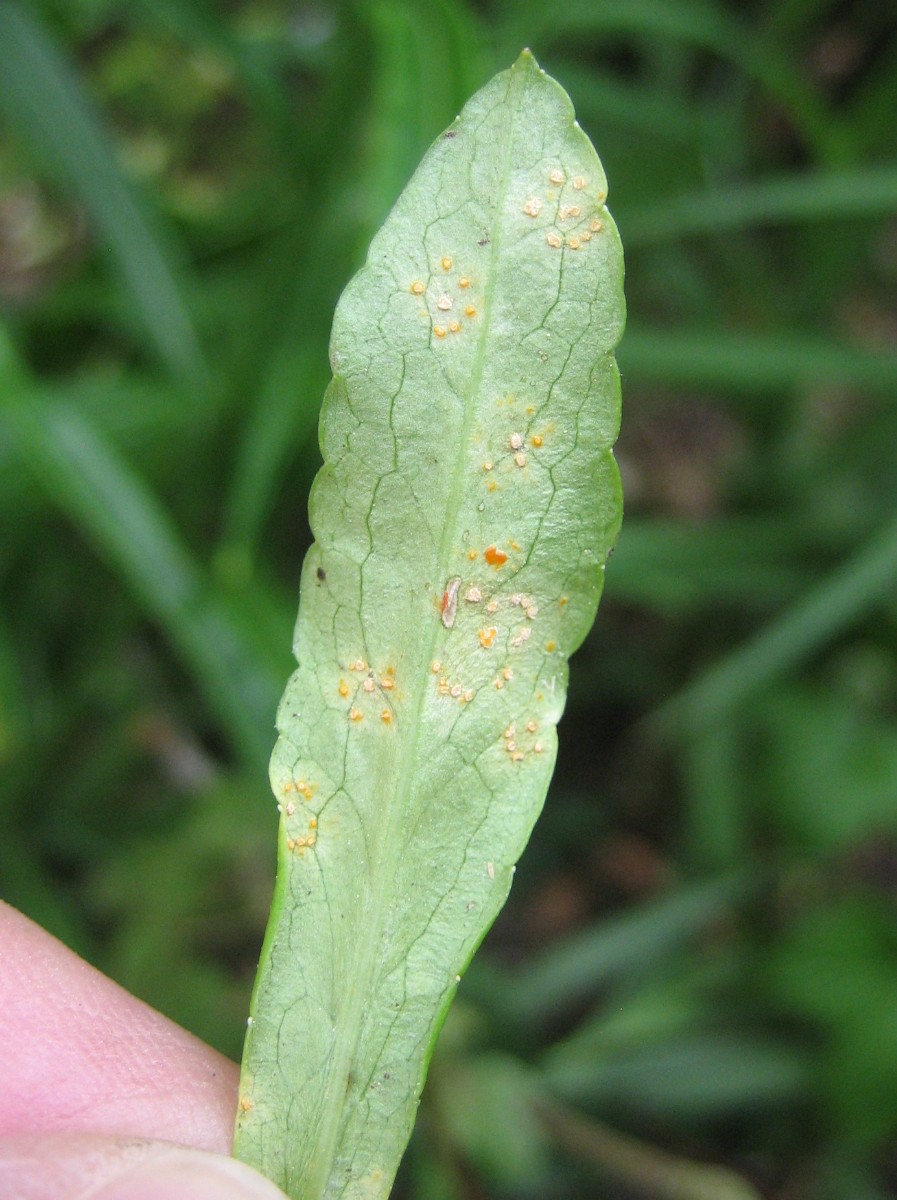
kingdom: Fungi
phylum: Basidiomycota
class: Pucciniomycetes
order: Pucciniales
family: Coleosporiaceae
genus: Coleosporium
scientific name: Coleosporium tussilaginis
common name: almindelig fyrrenålerust
